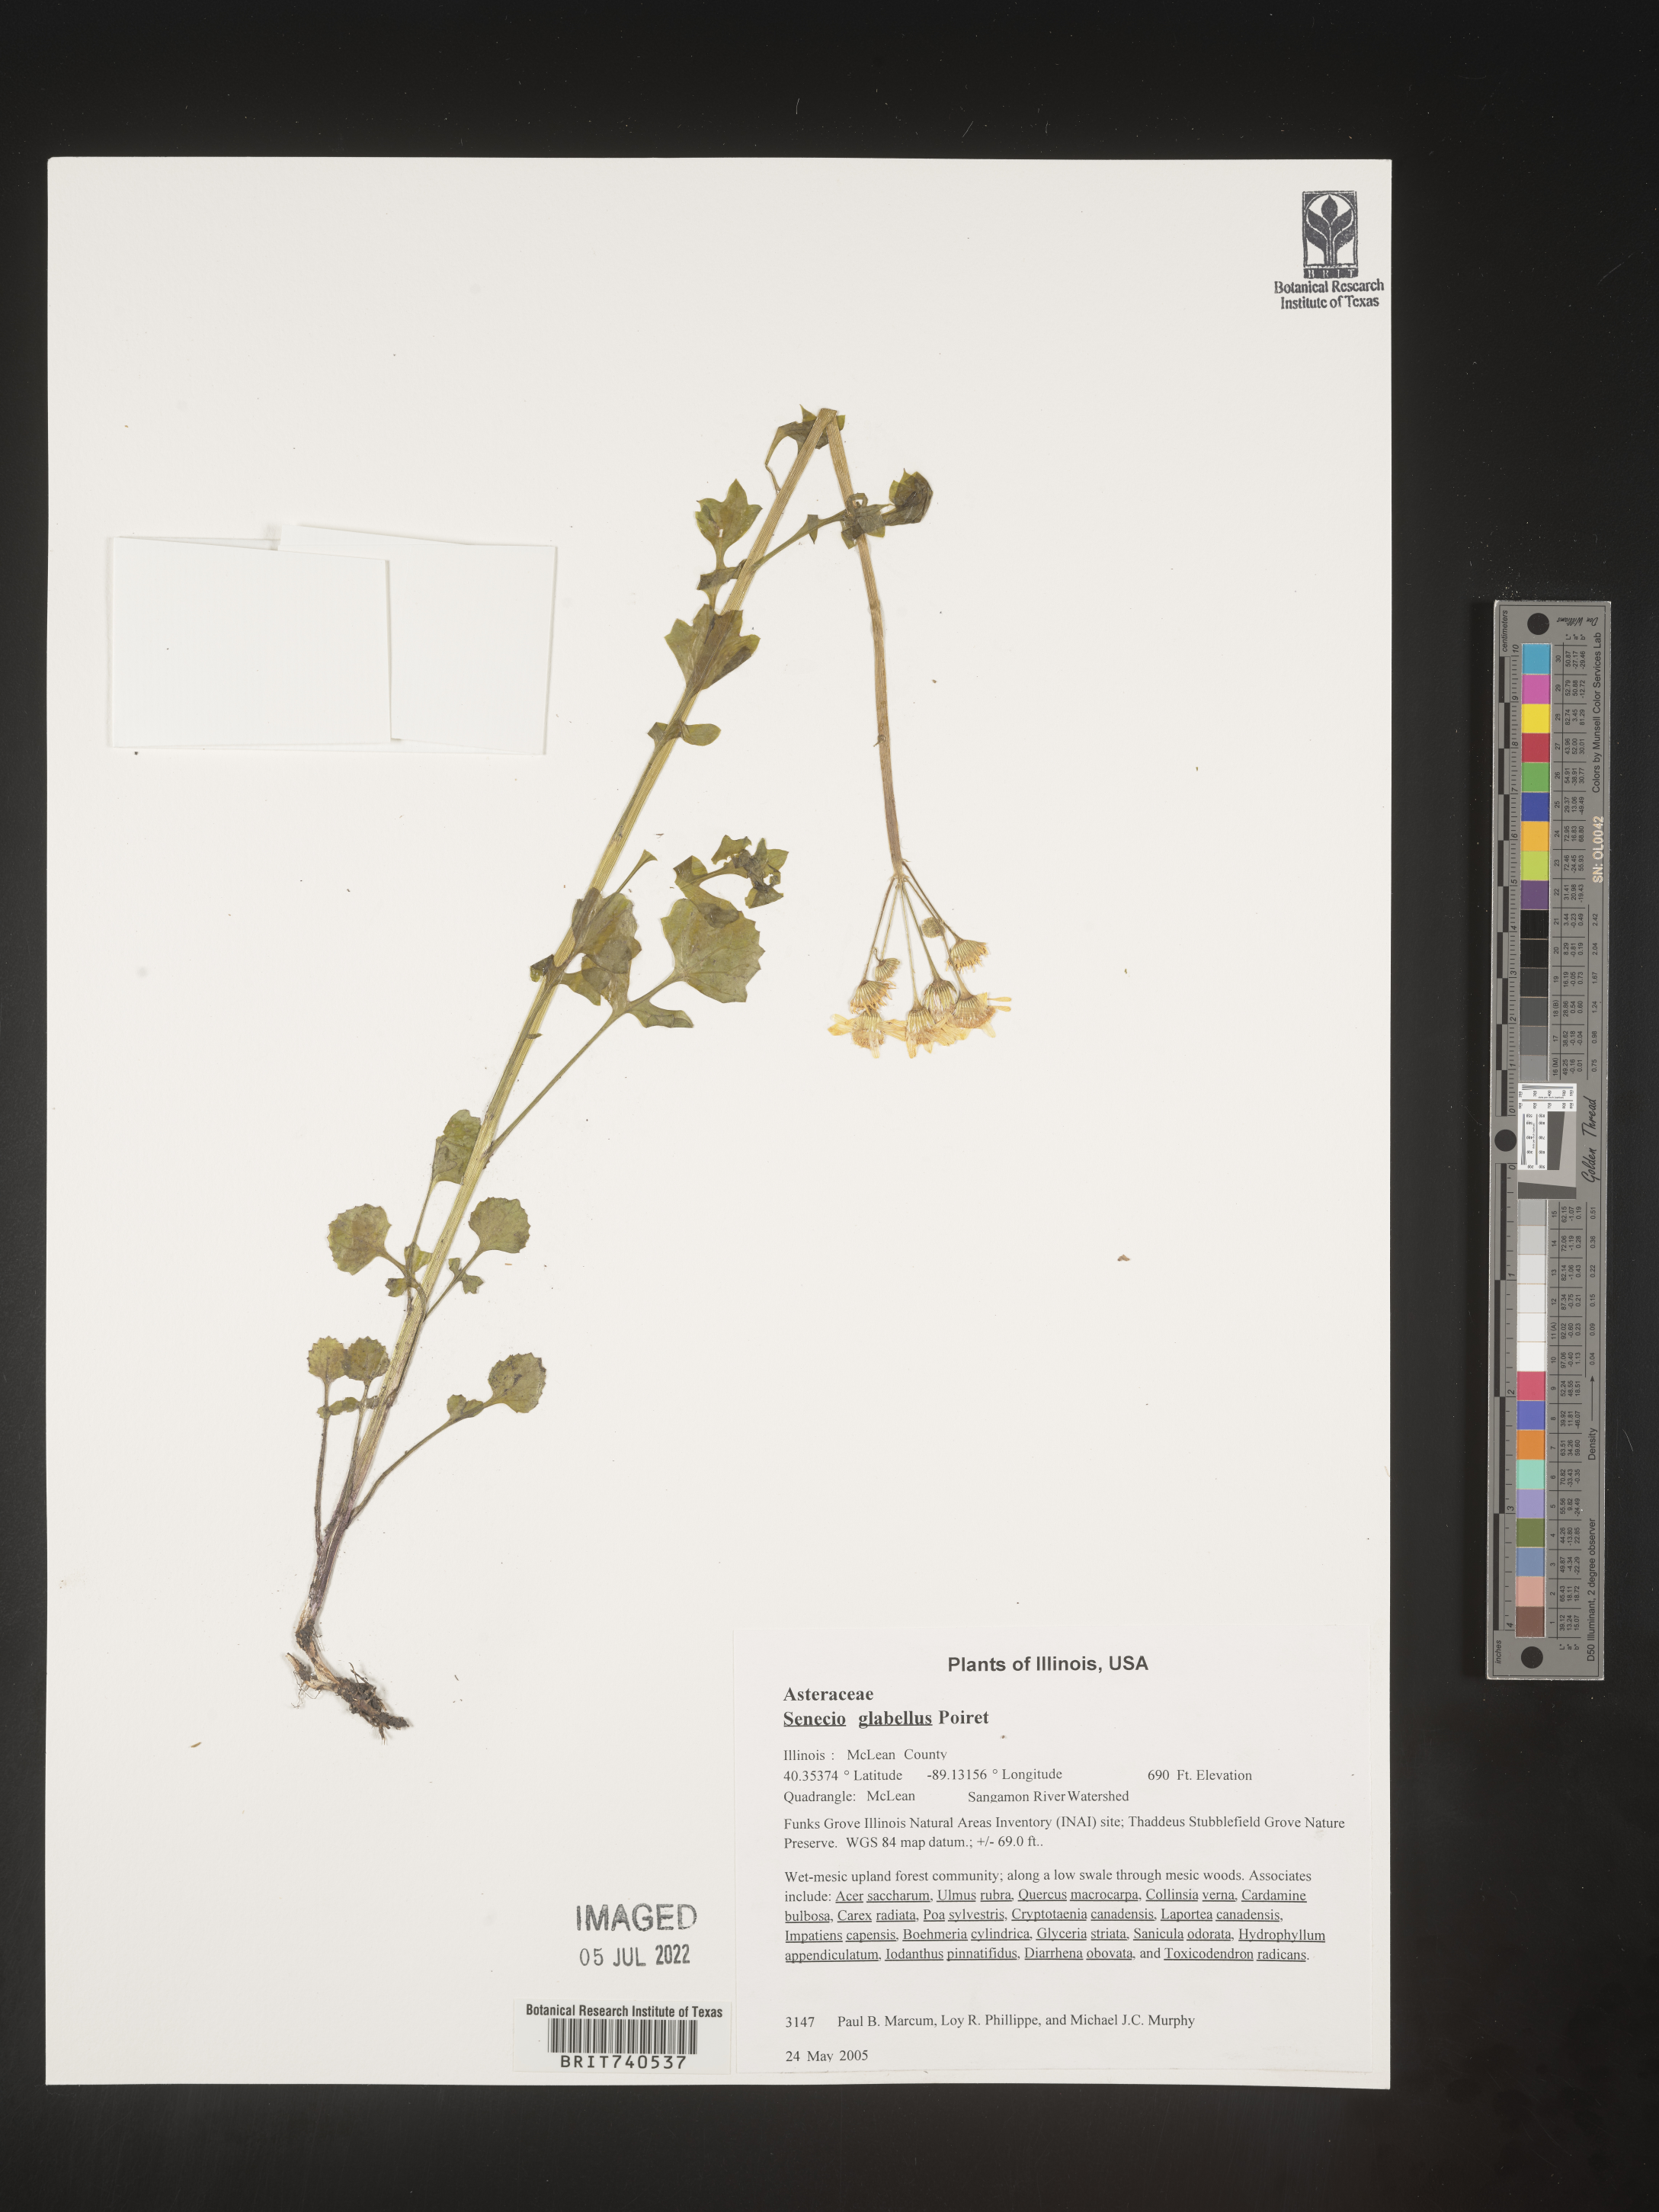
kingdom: Plantae
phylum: Tracheophyta
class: Magnoliopsida
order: Asterales
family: Asteraceae
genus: Tephroseris
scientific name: Tephroseris praticola
